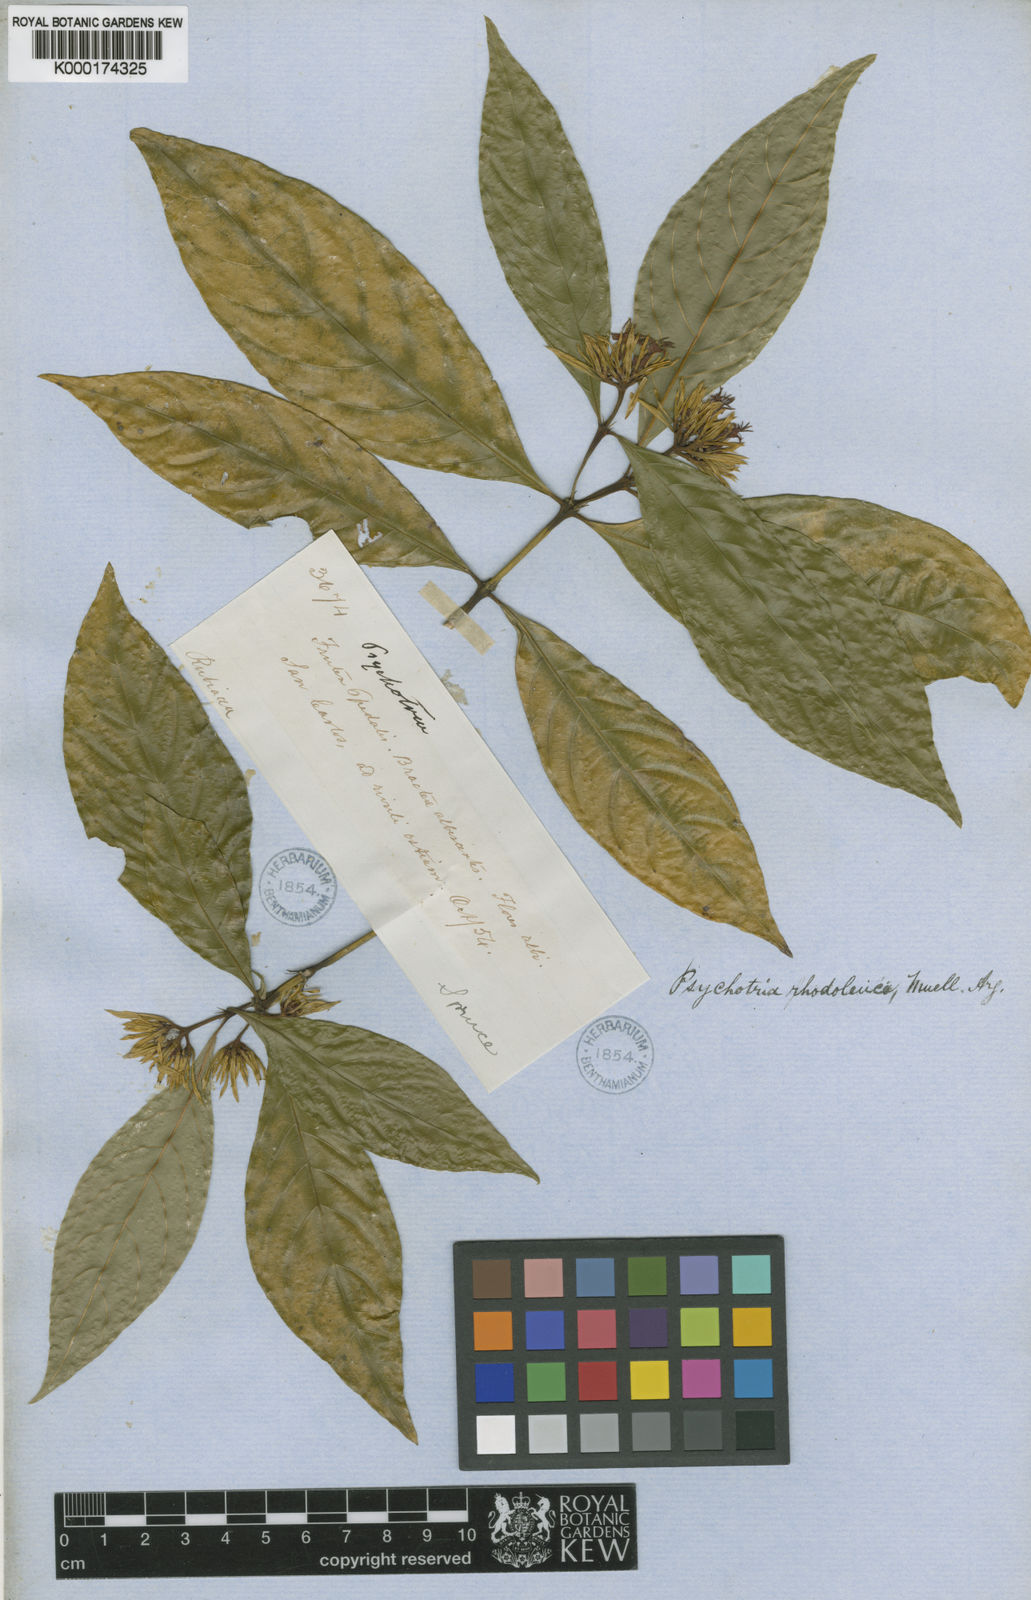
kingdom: Plantae
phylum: Tracheophyta
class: Magnoliopsida
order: Gentianales
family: Rubiaceae
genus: Palicourea
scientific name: Palicourea justiciifolia
